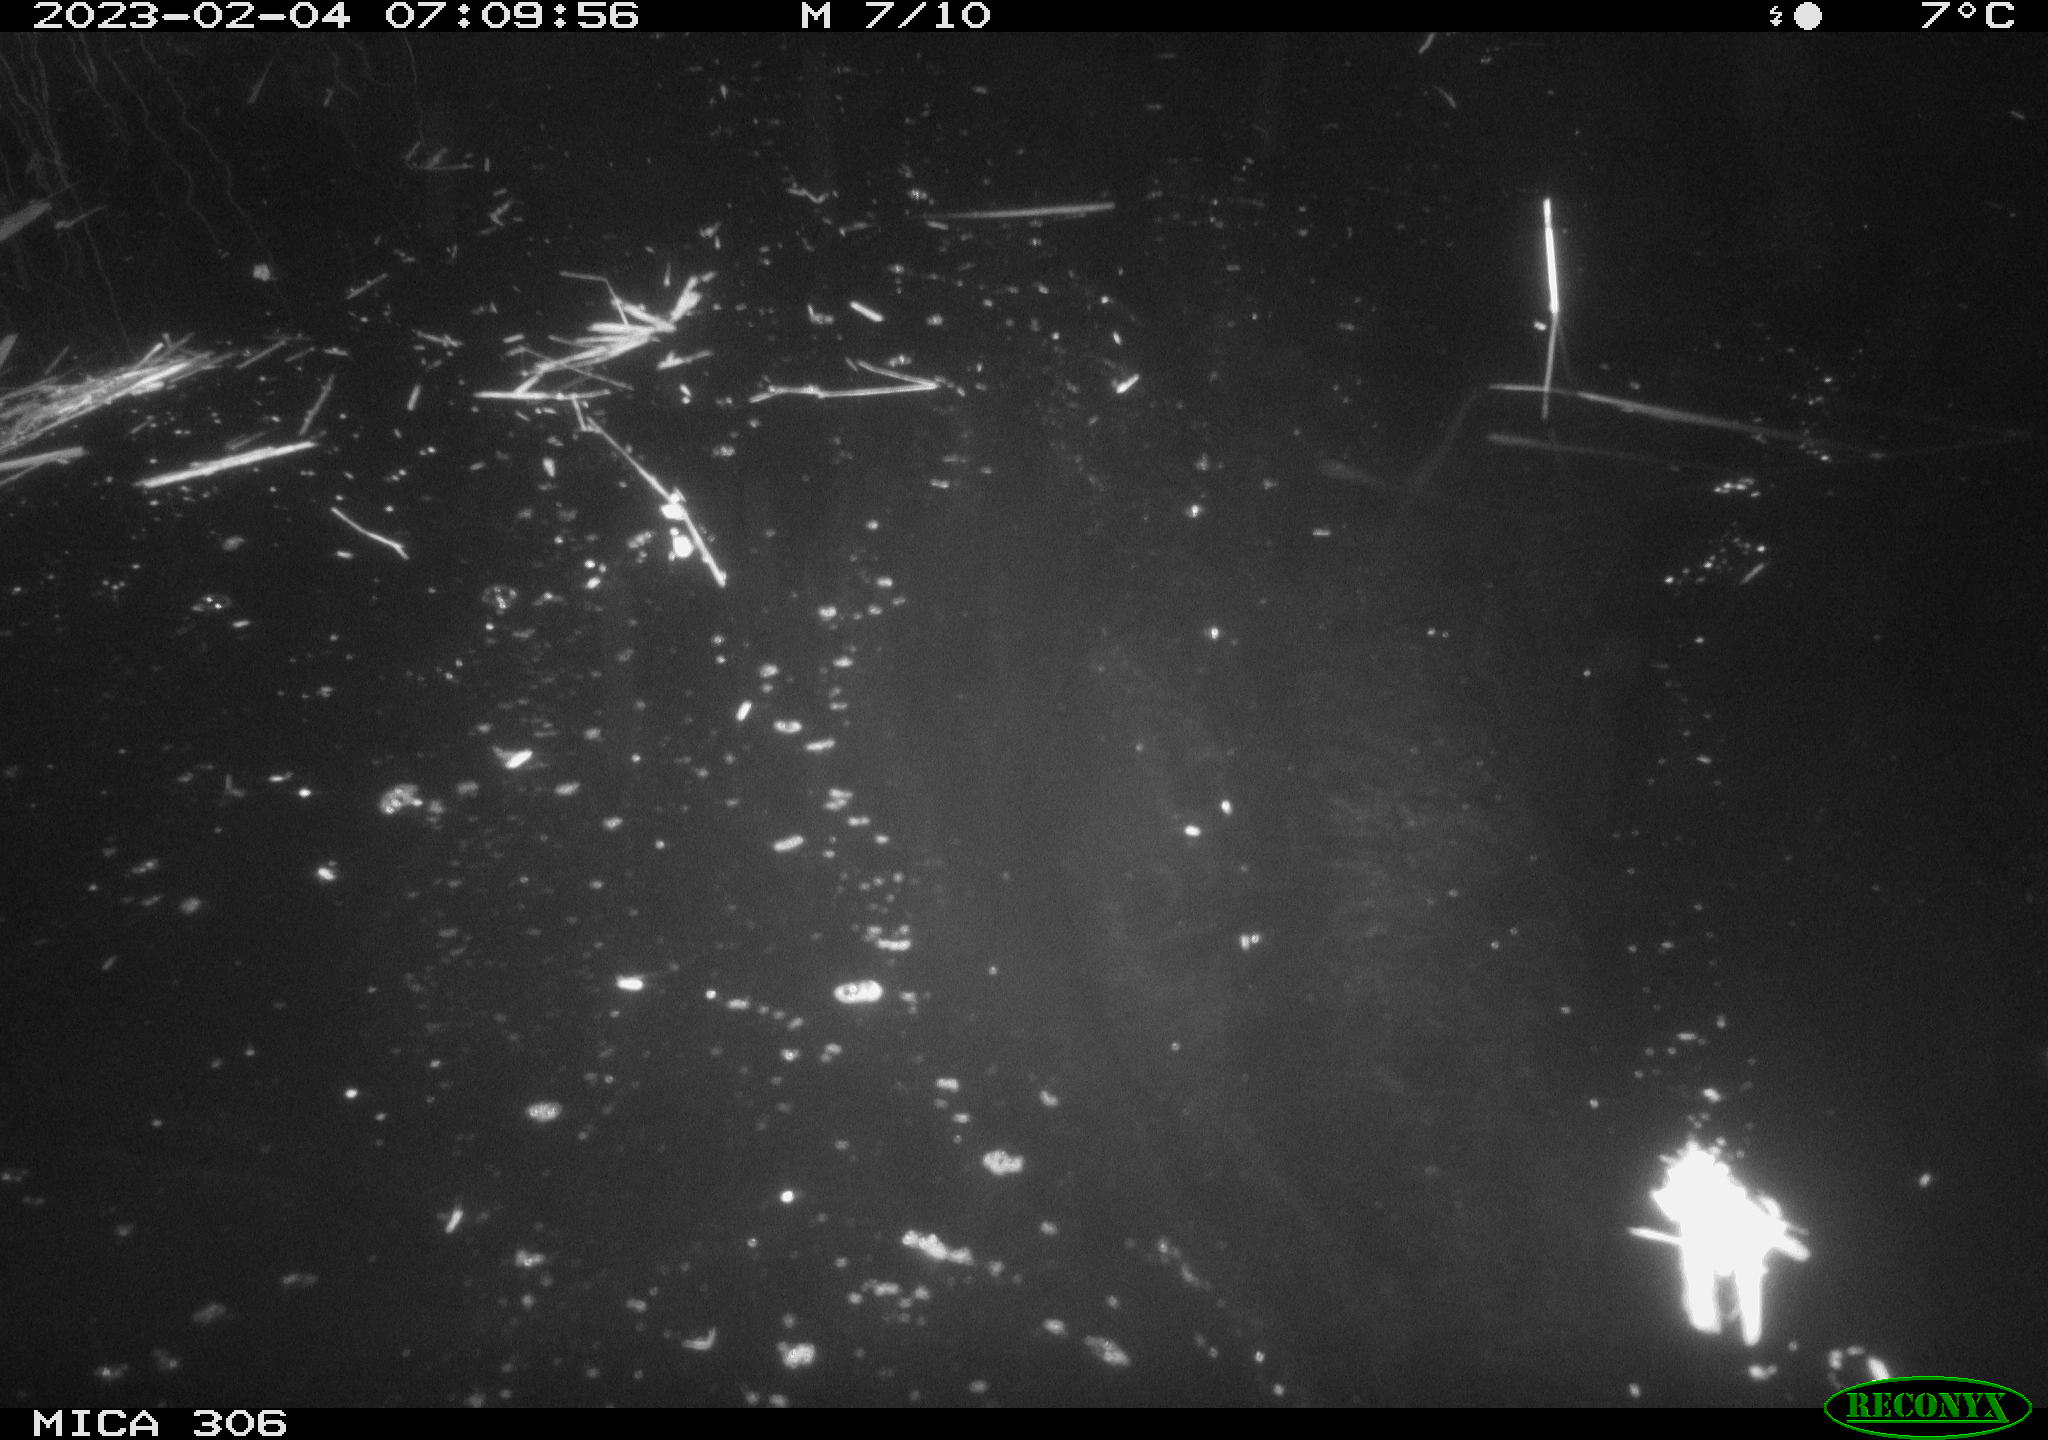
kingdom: Animalia
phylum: Chordata
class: Mammalia
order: Rodentia
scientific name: Rodentia
